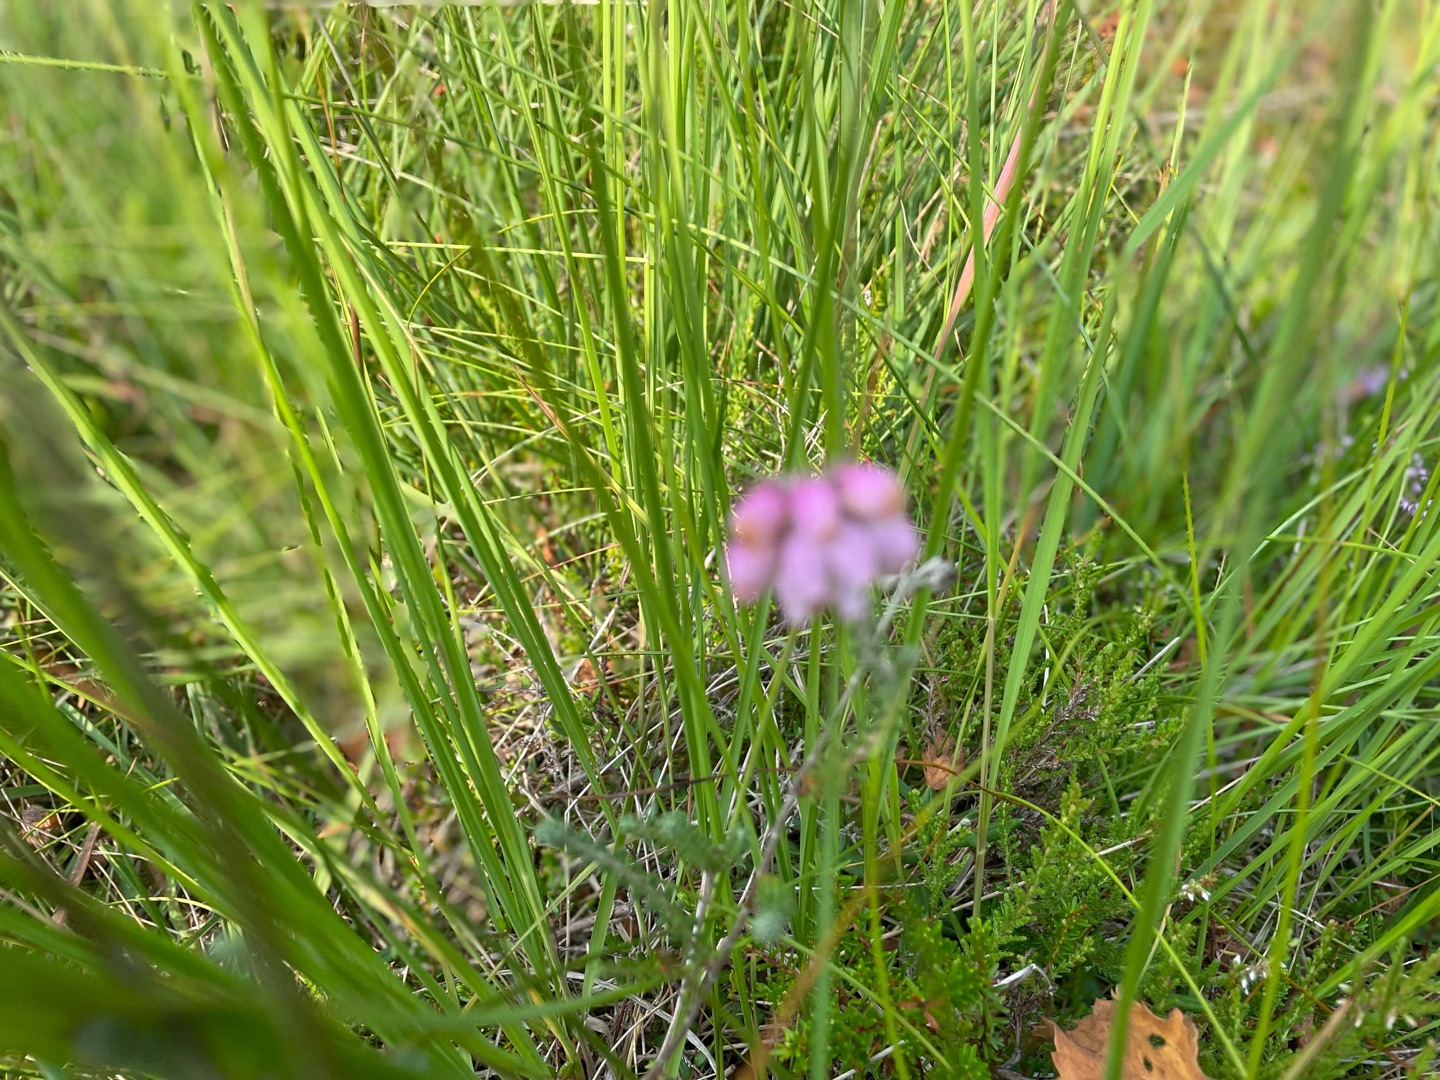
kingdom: Plantae
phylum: Tracheophyta
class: Magnoliopsida
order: Ericales
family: Ericaceae
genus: Erica
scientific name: Erica tetralix
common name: Klokkelyng
